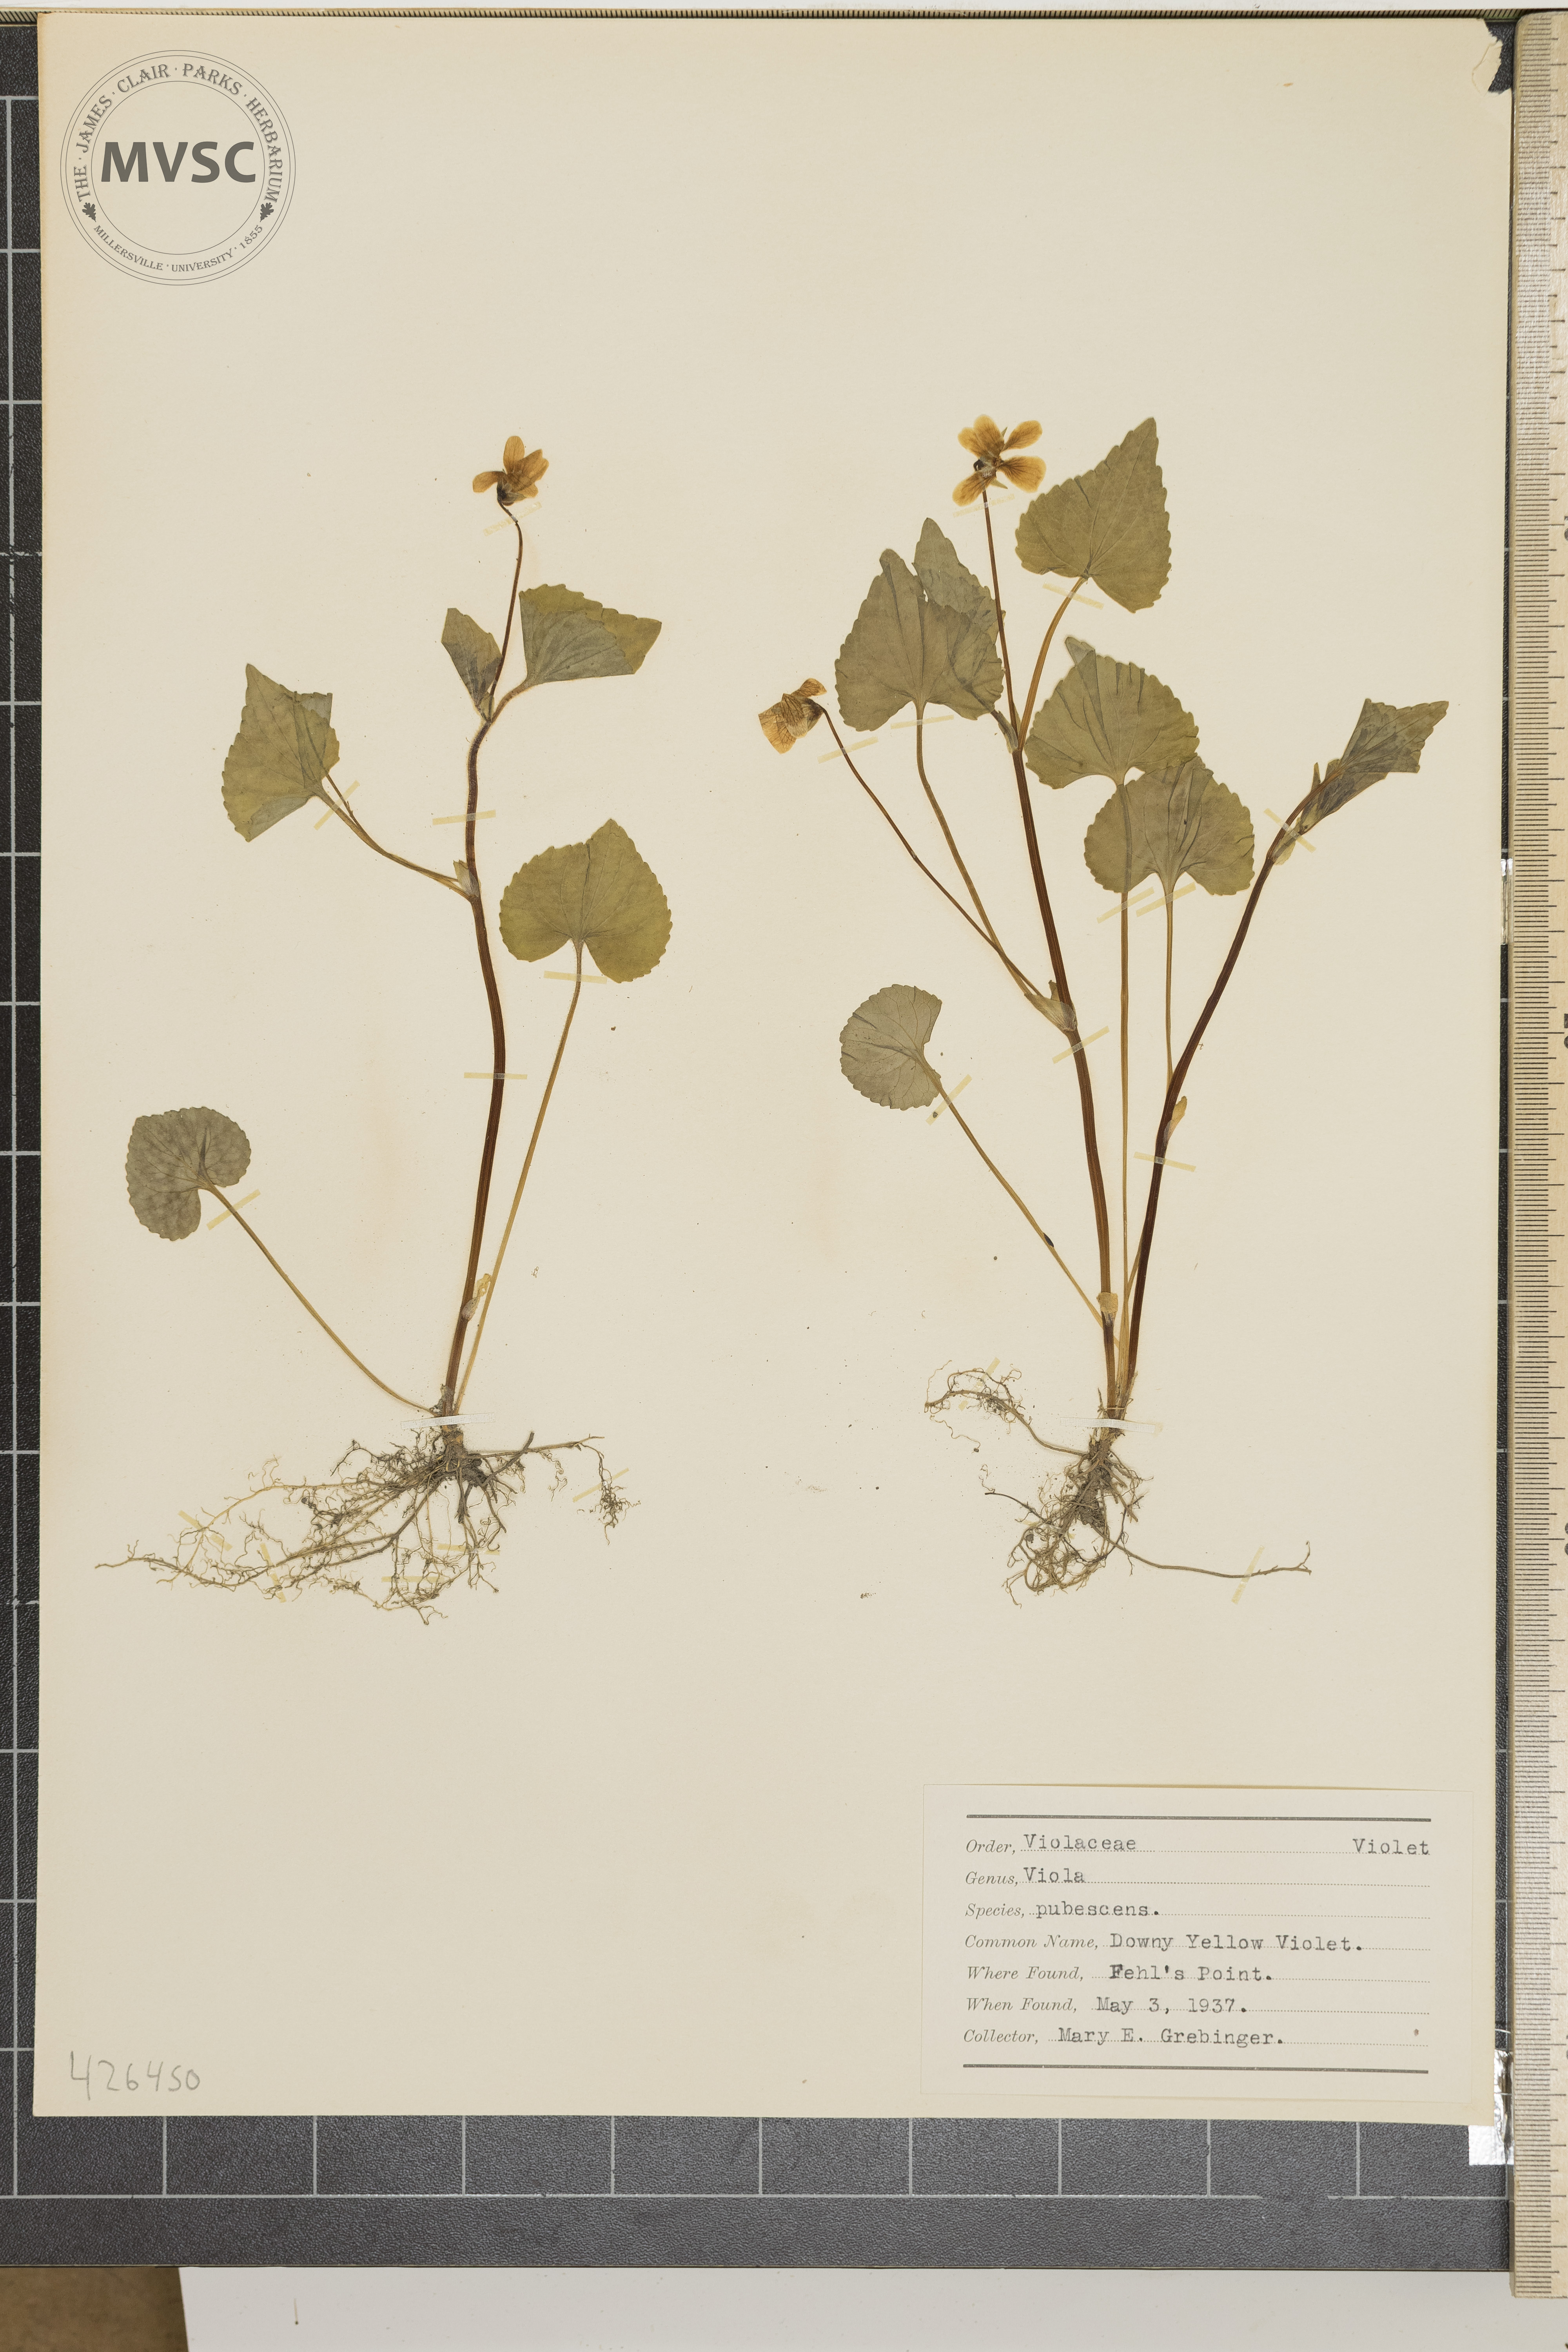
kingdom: Plantae
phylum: Tracheophyta
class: Magnoliopsida
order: Malpighiales
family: Violaceae
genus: Viola
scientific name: Viola pubescens
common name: Downy Yellow Violet
